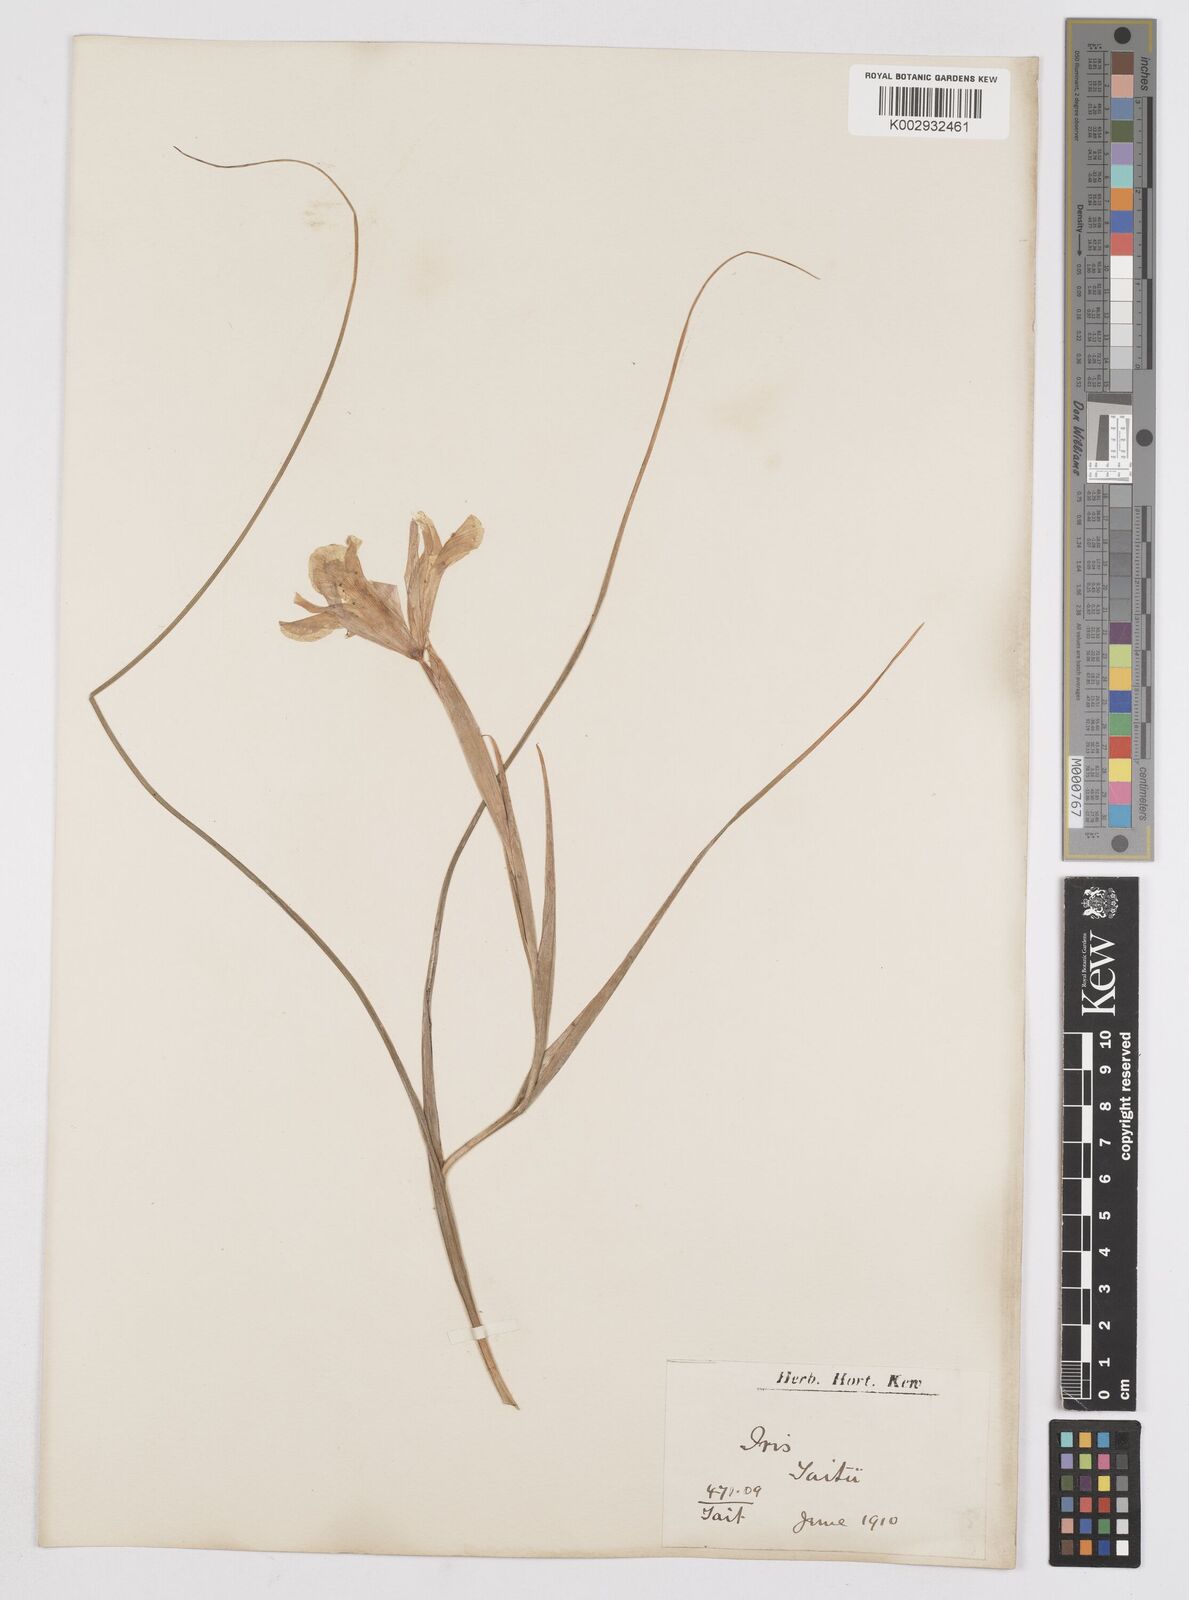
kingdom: Plantae
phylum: Tracheophyta
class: Liliopsida
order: Asparagales
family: Iridaceae
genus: Iris
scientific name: Iris xiphium
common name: Spanish iris
